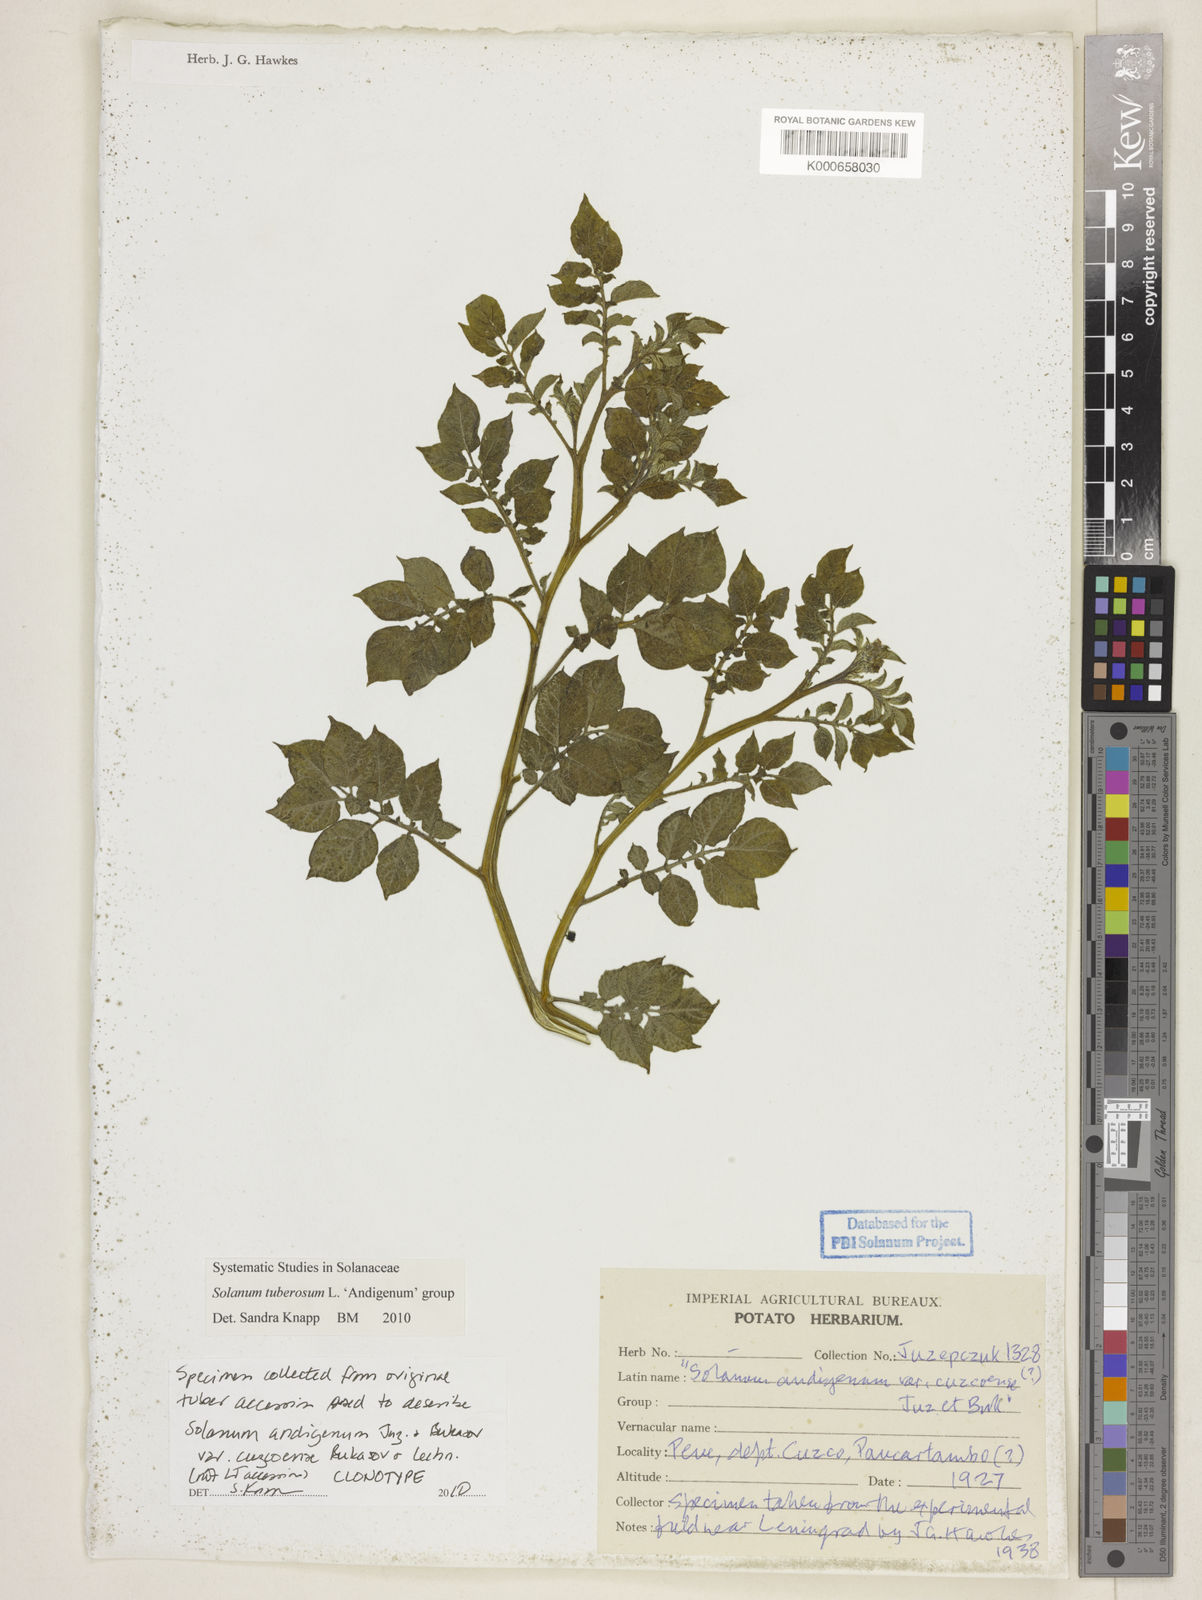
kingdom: Plantae
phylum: Tracheophyta
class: Magnoliopsida
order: Solanales
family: Solanaceae
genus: Solanum
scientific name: Solanum tuberosum
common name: Potato
